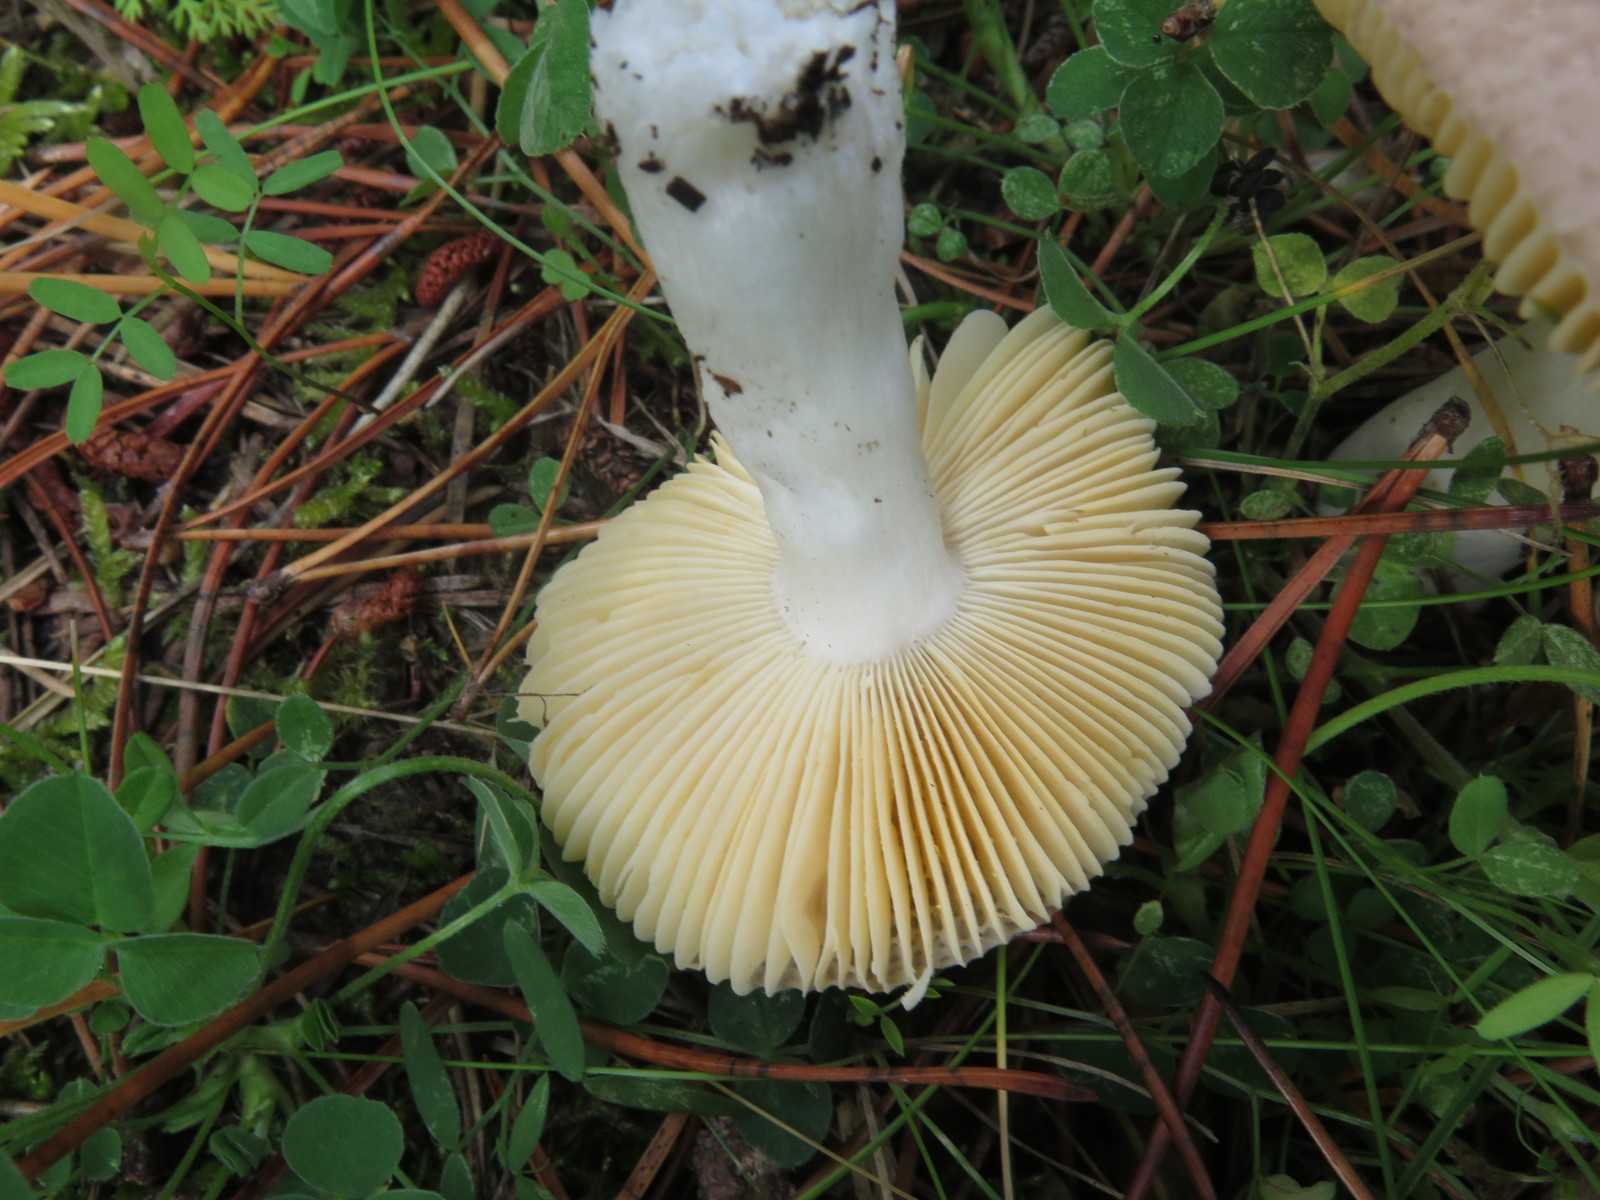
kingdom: Fungi
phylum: Basidiomycota
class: Agaricomycetes
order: Russulales
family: Russulaceae
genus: Russula
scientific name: Russula cessans
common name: fyrre-skørhat
